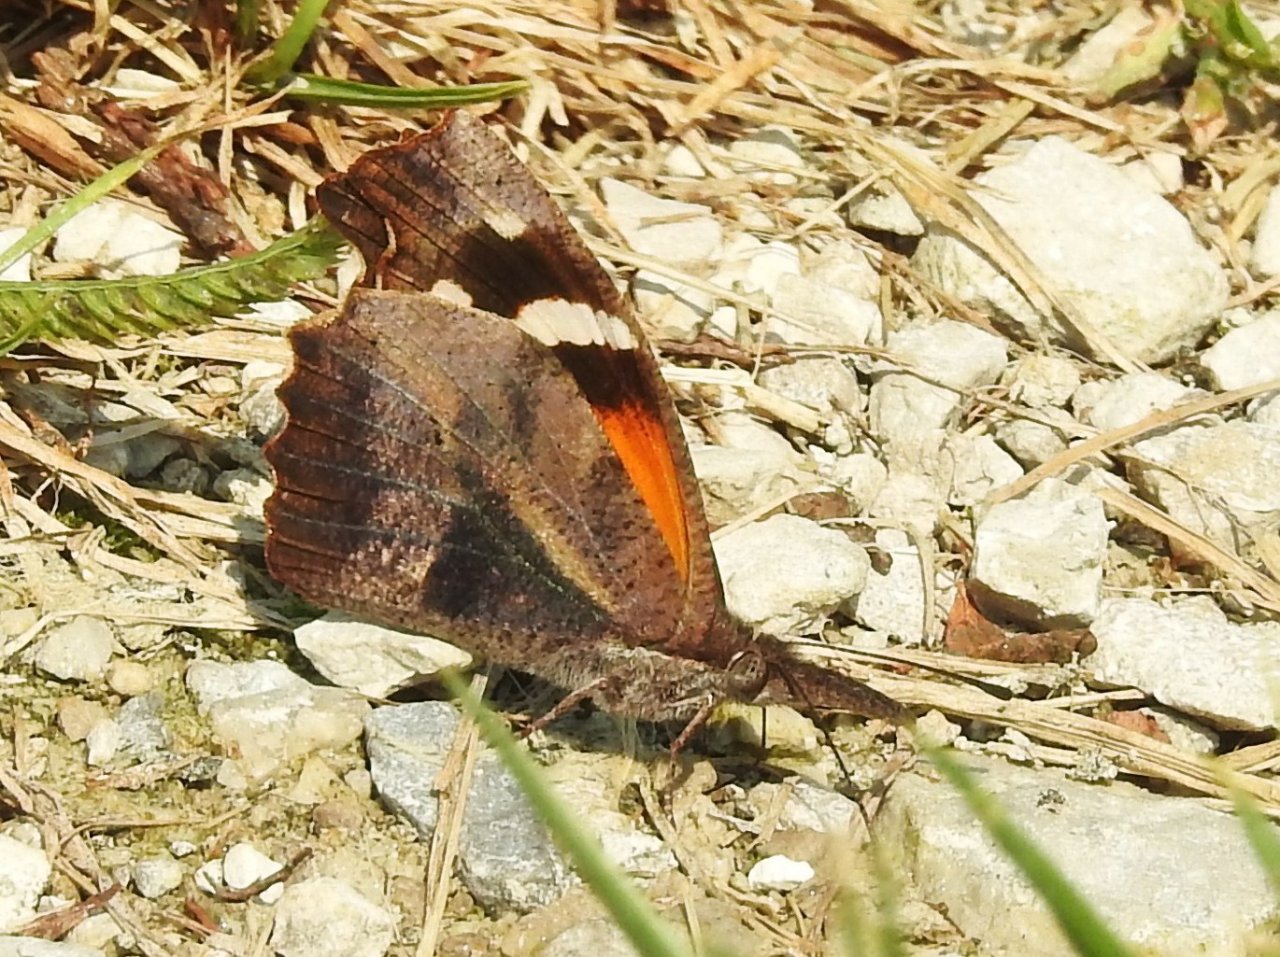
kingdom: Animalia
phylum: Arthropoda
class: Insecta
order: Lepidoptera
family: Nymphalidae
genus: Libytheana
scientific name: Libytheana carinenta
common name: American Snout
